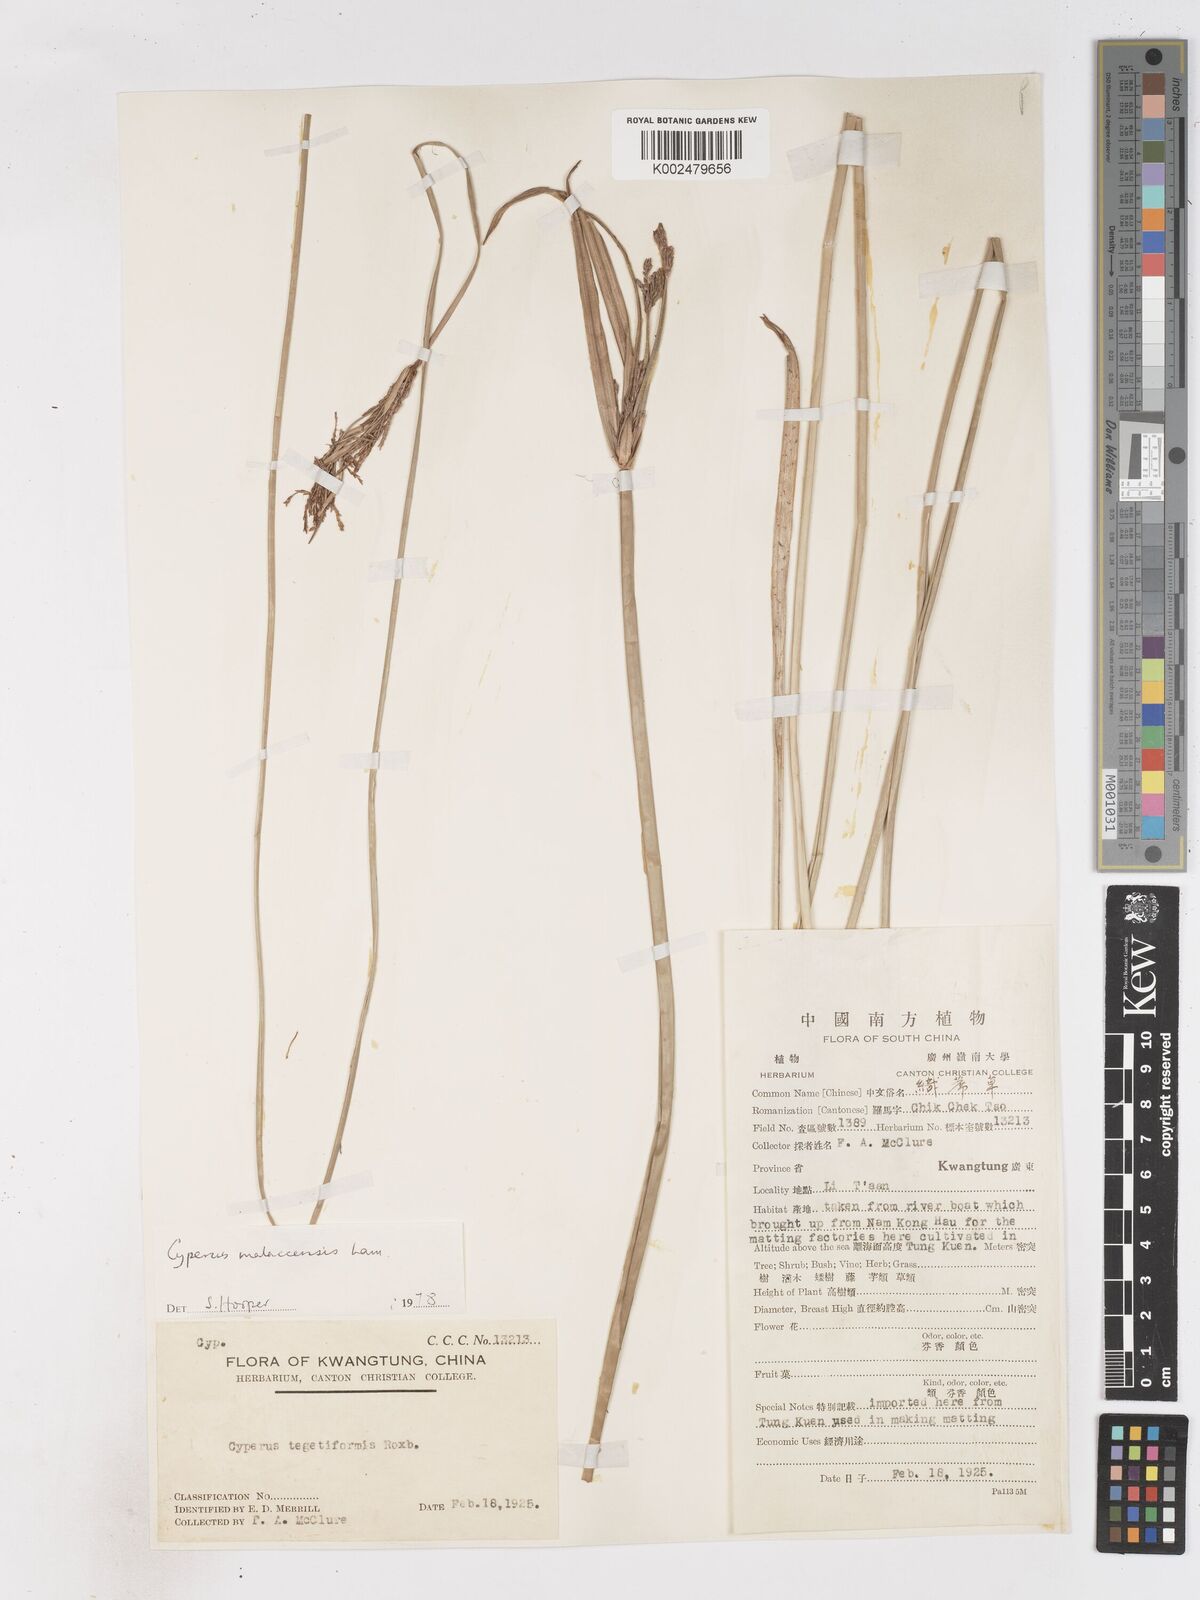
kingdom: Plantae
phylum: Tracheophyta
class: Liliopsida
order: Poales
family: Cyperaceae
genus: Cyperus
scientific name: Cyperus malaccensis
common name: Shichito matgrass
